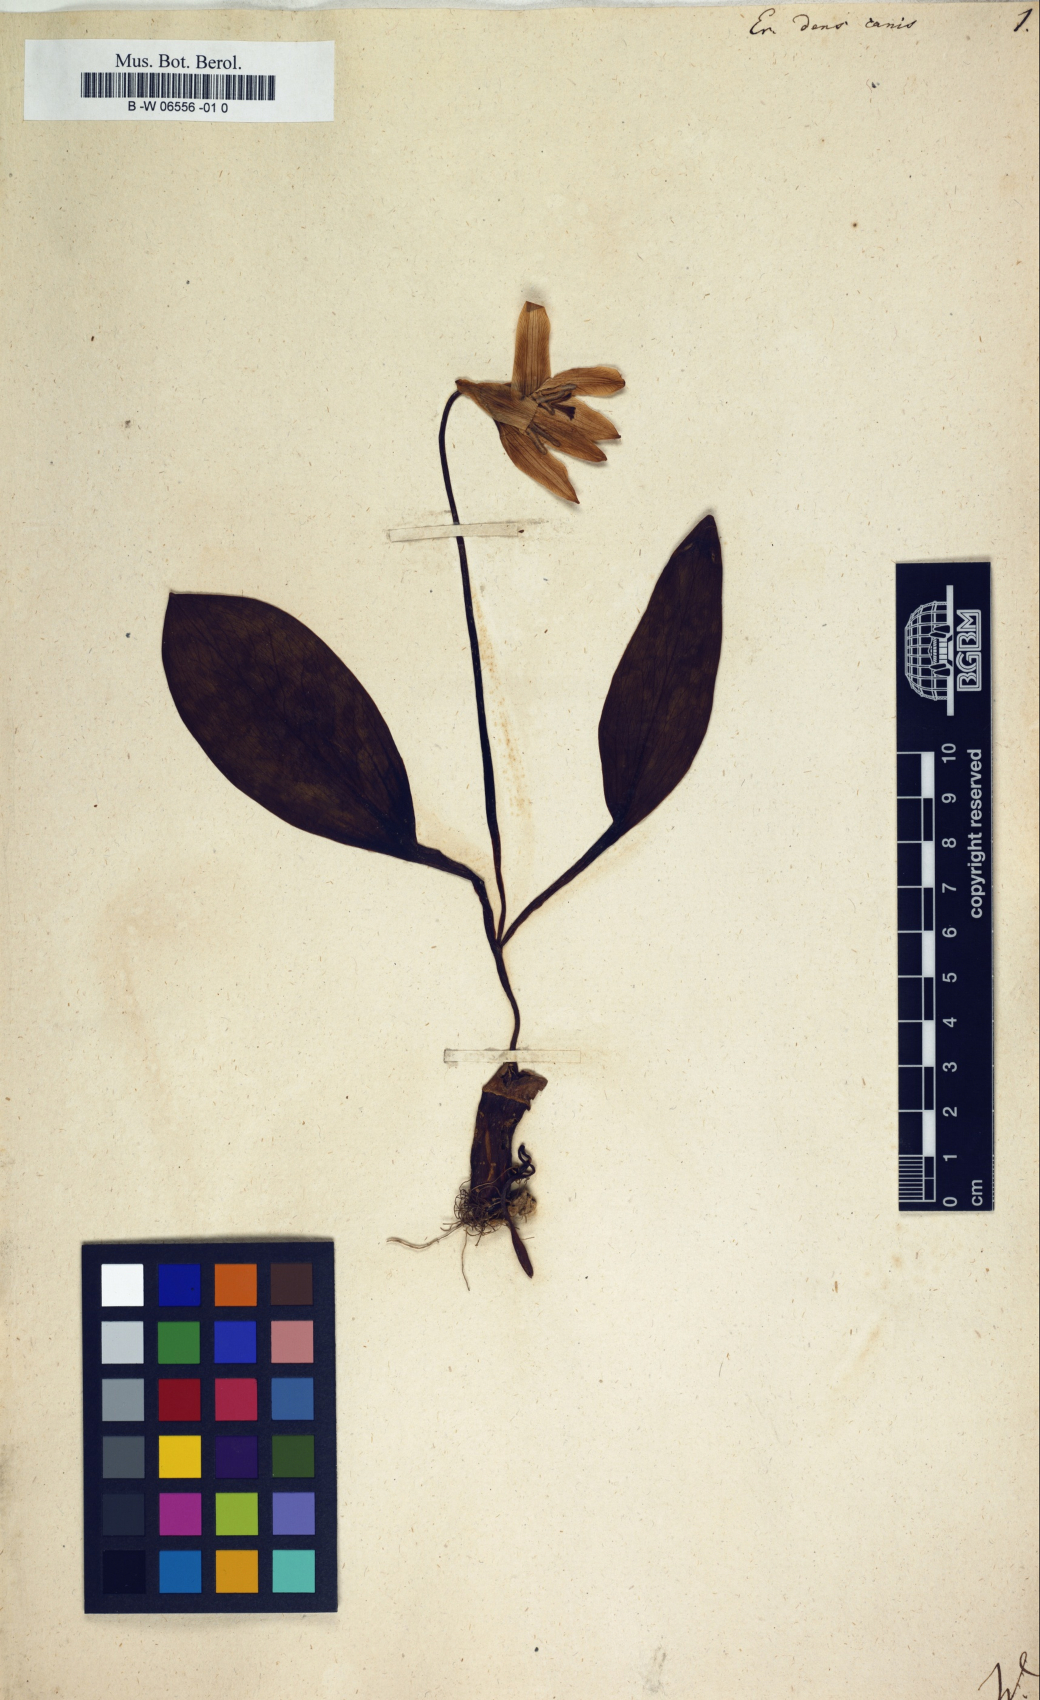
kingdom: Plantae
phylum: Tracheophyta
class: Liliopsida
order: Liliales
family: Liliaceae
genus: Erythronium
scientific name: Erythronium dens-canis
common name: Dog's-tooth-violet
